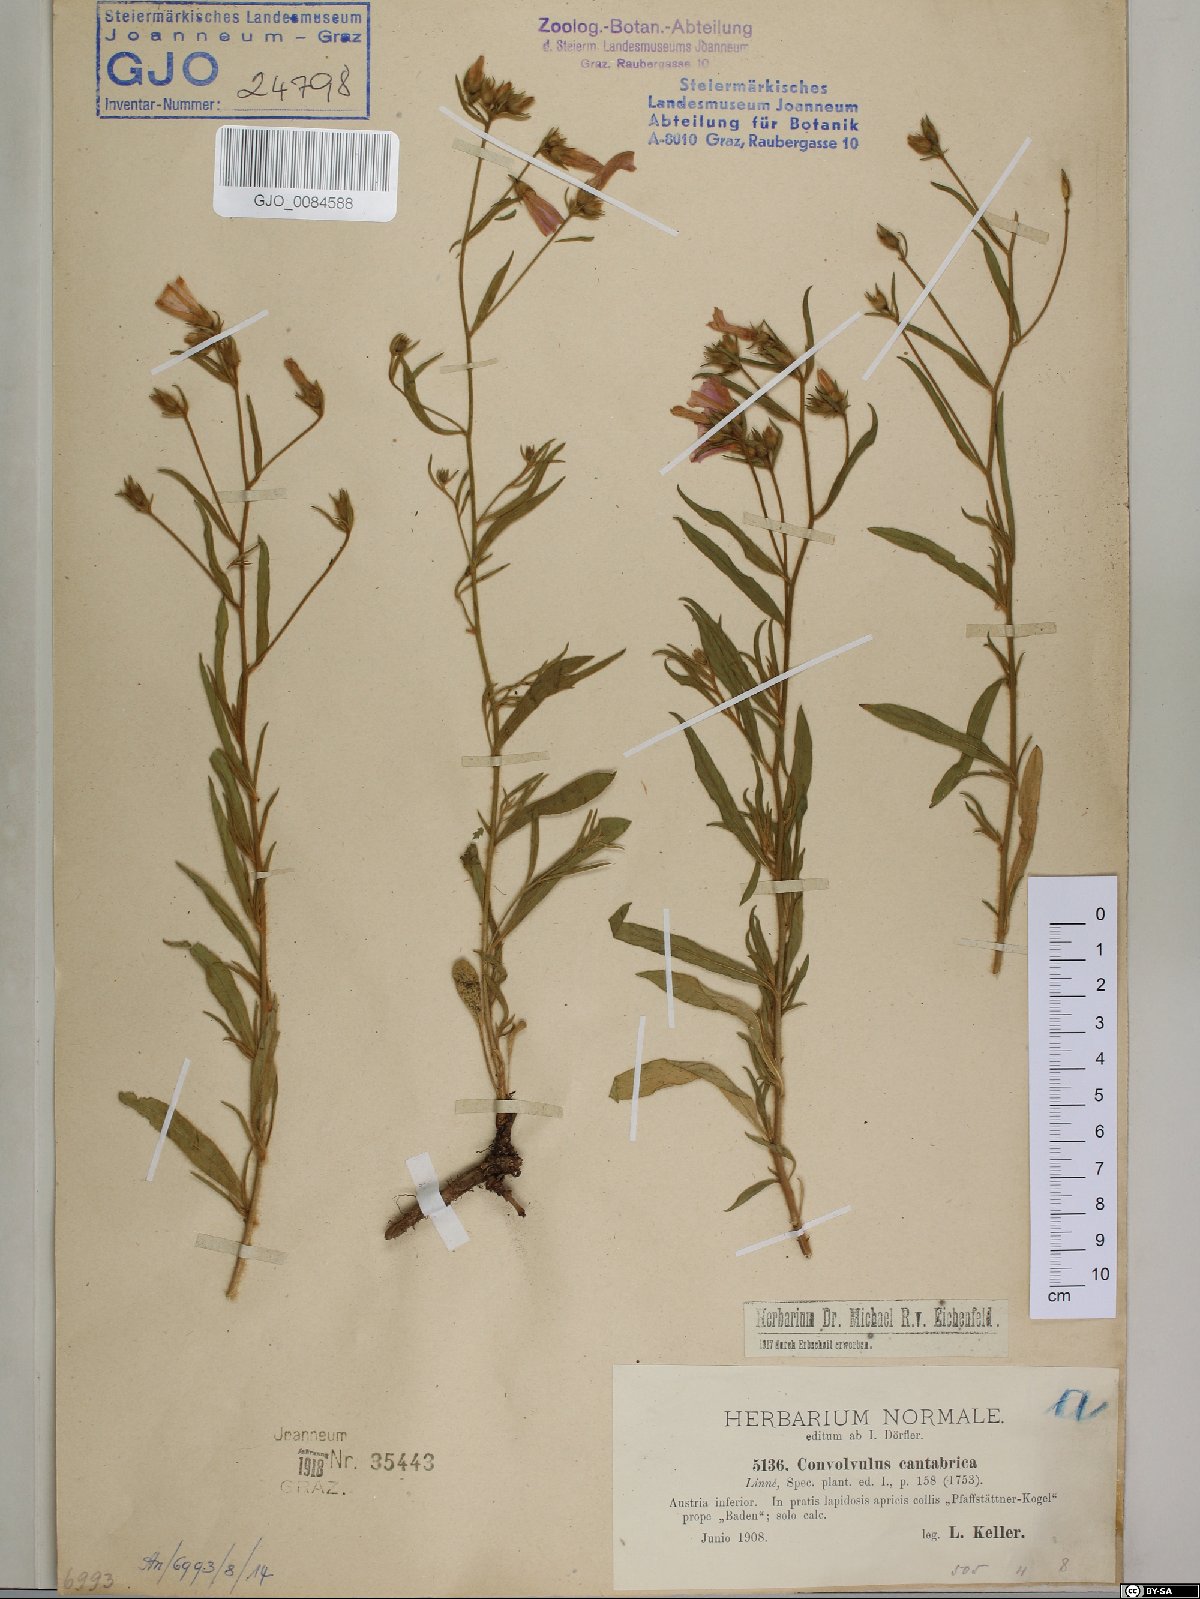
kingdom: Plantae
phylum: Tracheophyta
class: Magnoliopsida
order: Solanales
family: Convolvulaceae
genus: Convolvulus
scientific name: Convolvulus cantabrica
